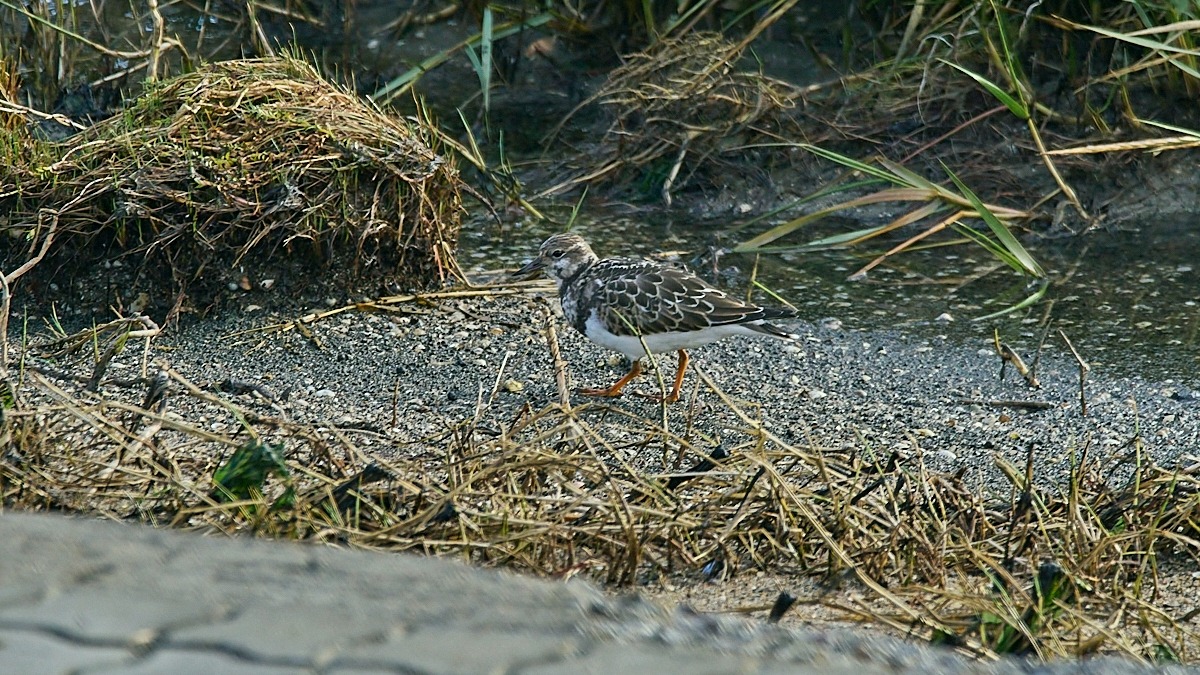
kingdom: Animalia
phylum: Chordata
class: Aves
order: Charadriiformes
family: Scolopacidae
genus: Arenaria
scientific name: Arenaria interpres
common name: Stenvender
